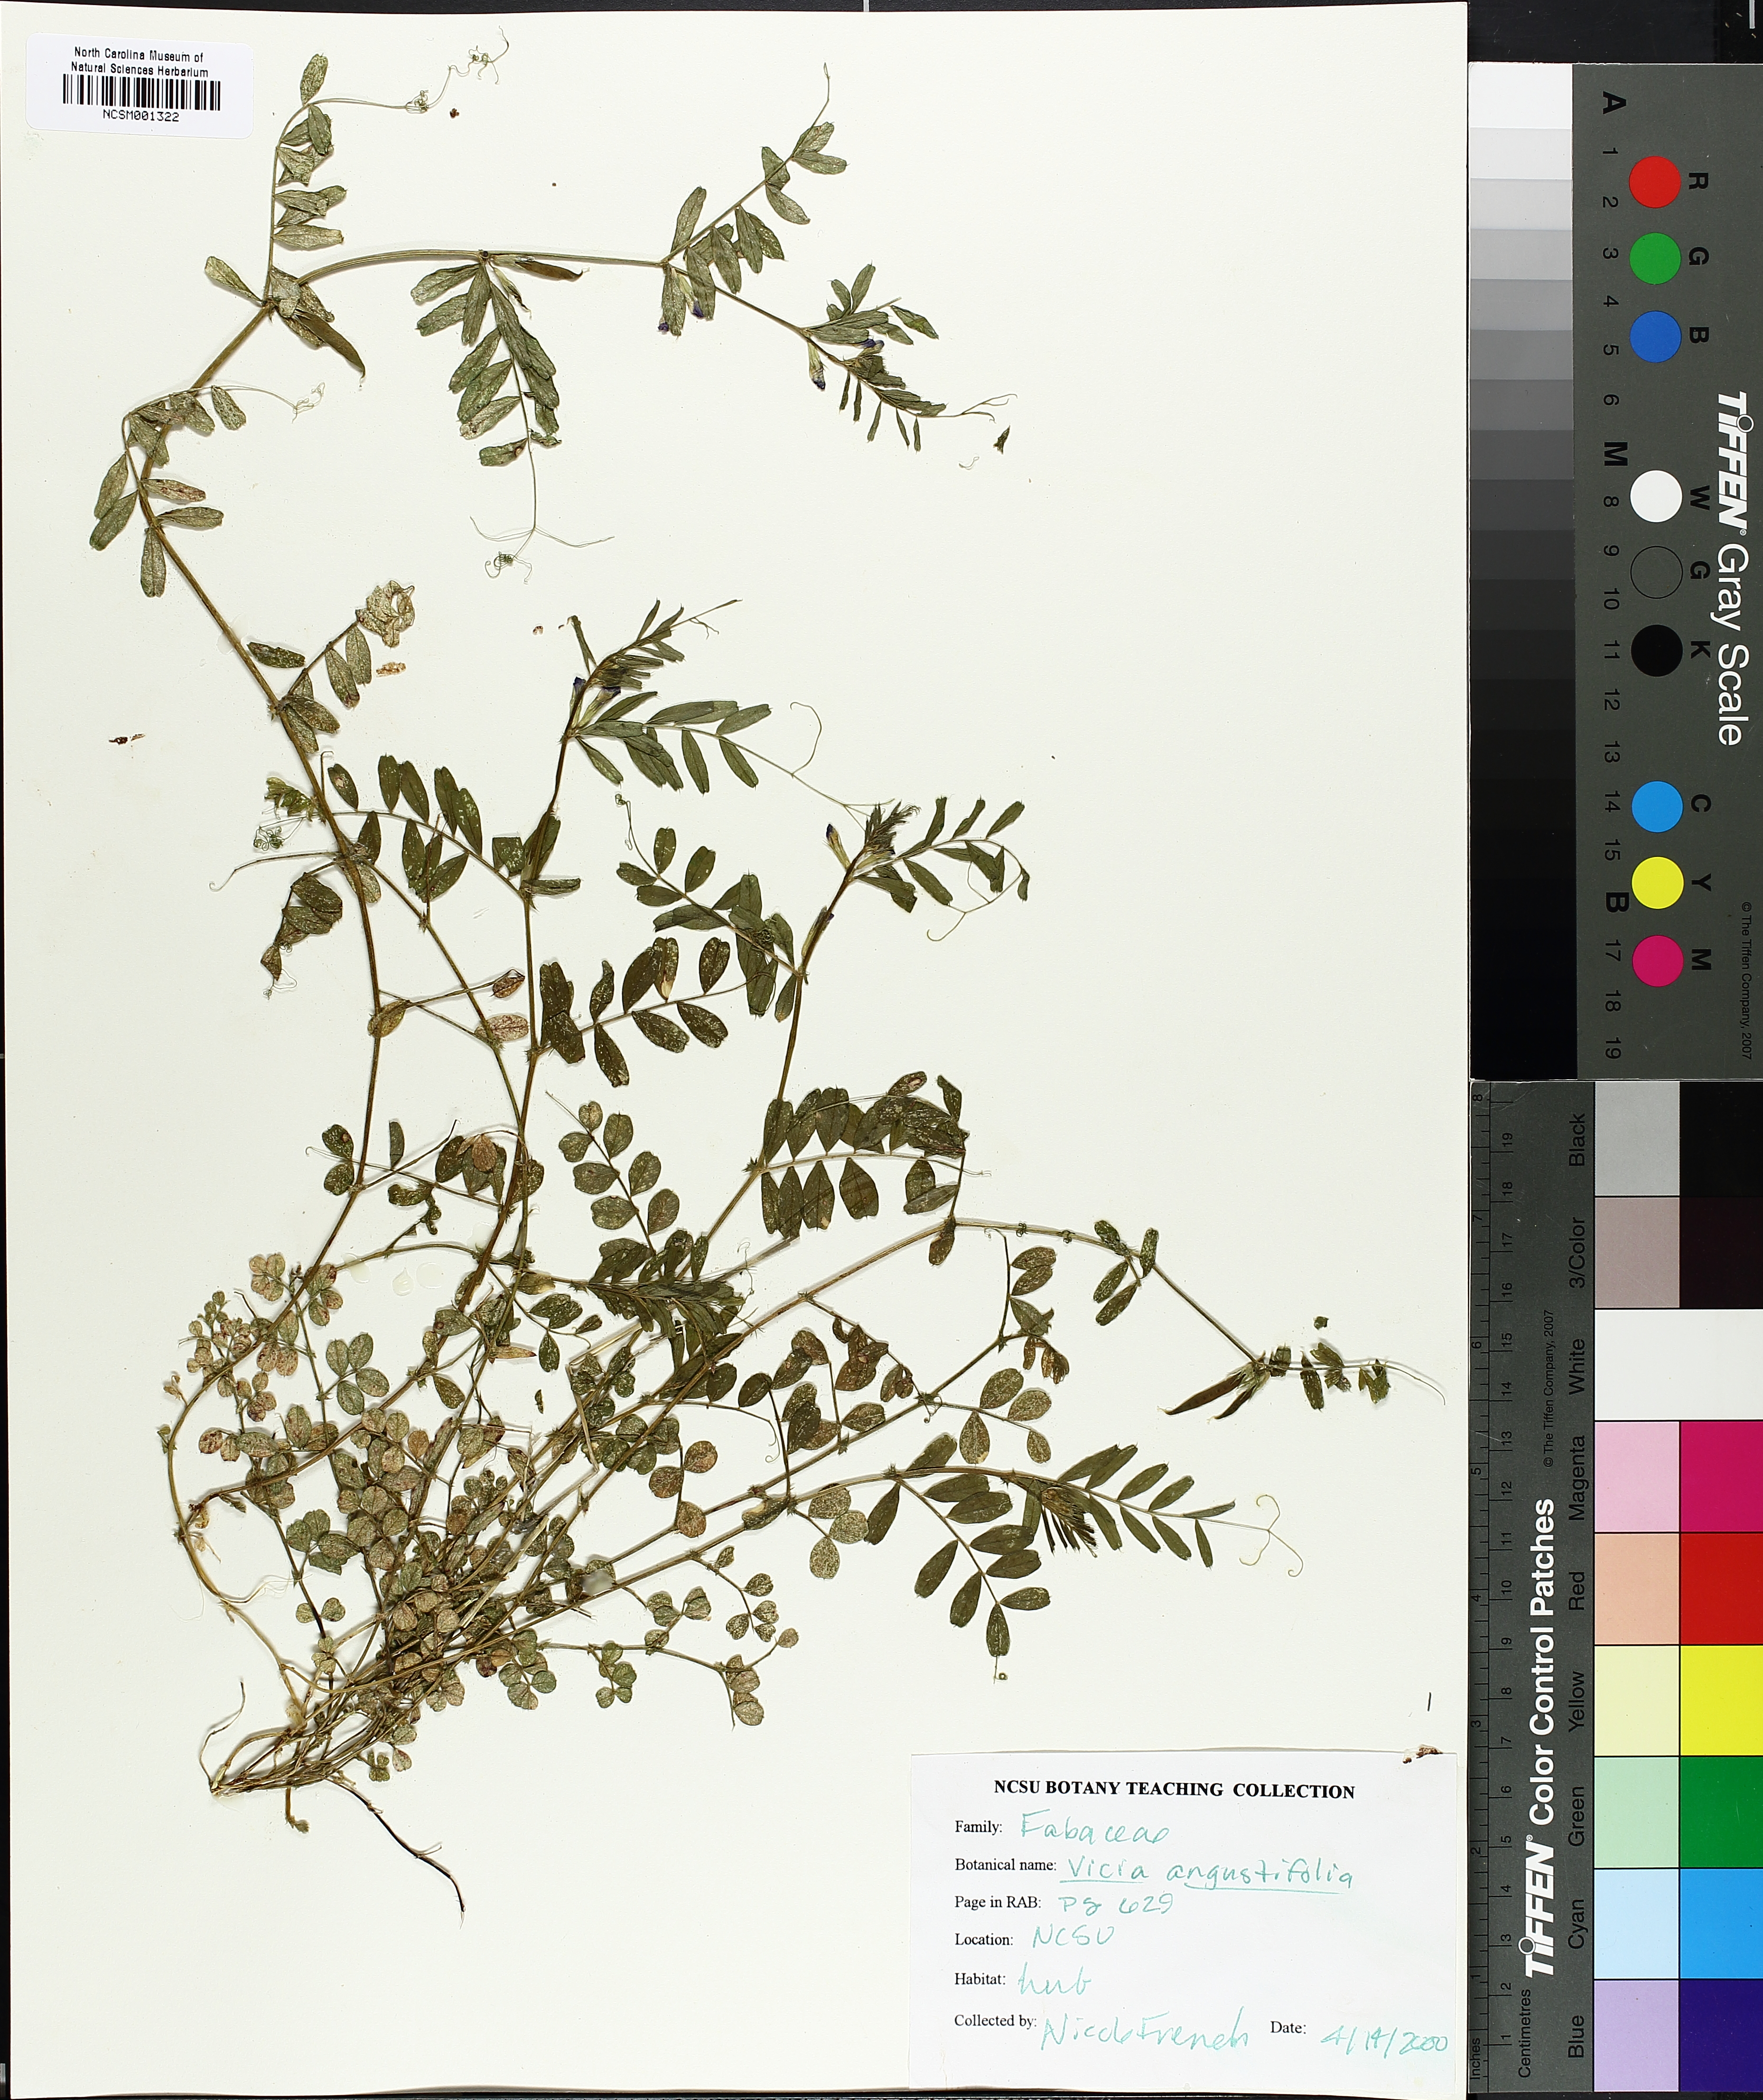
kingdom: Plantae
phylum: Tracheophyta
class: Magnoliopsida
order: Fabales
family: Fabaceae
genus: Vicia
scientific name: Vicia sativa
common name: Garden vetch
